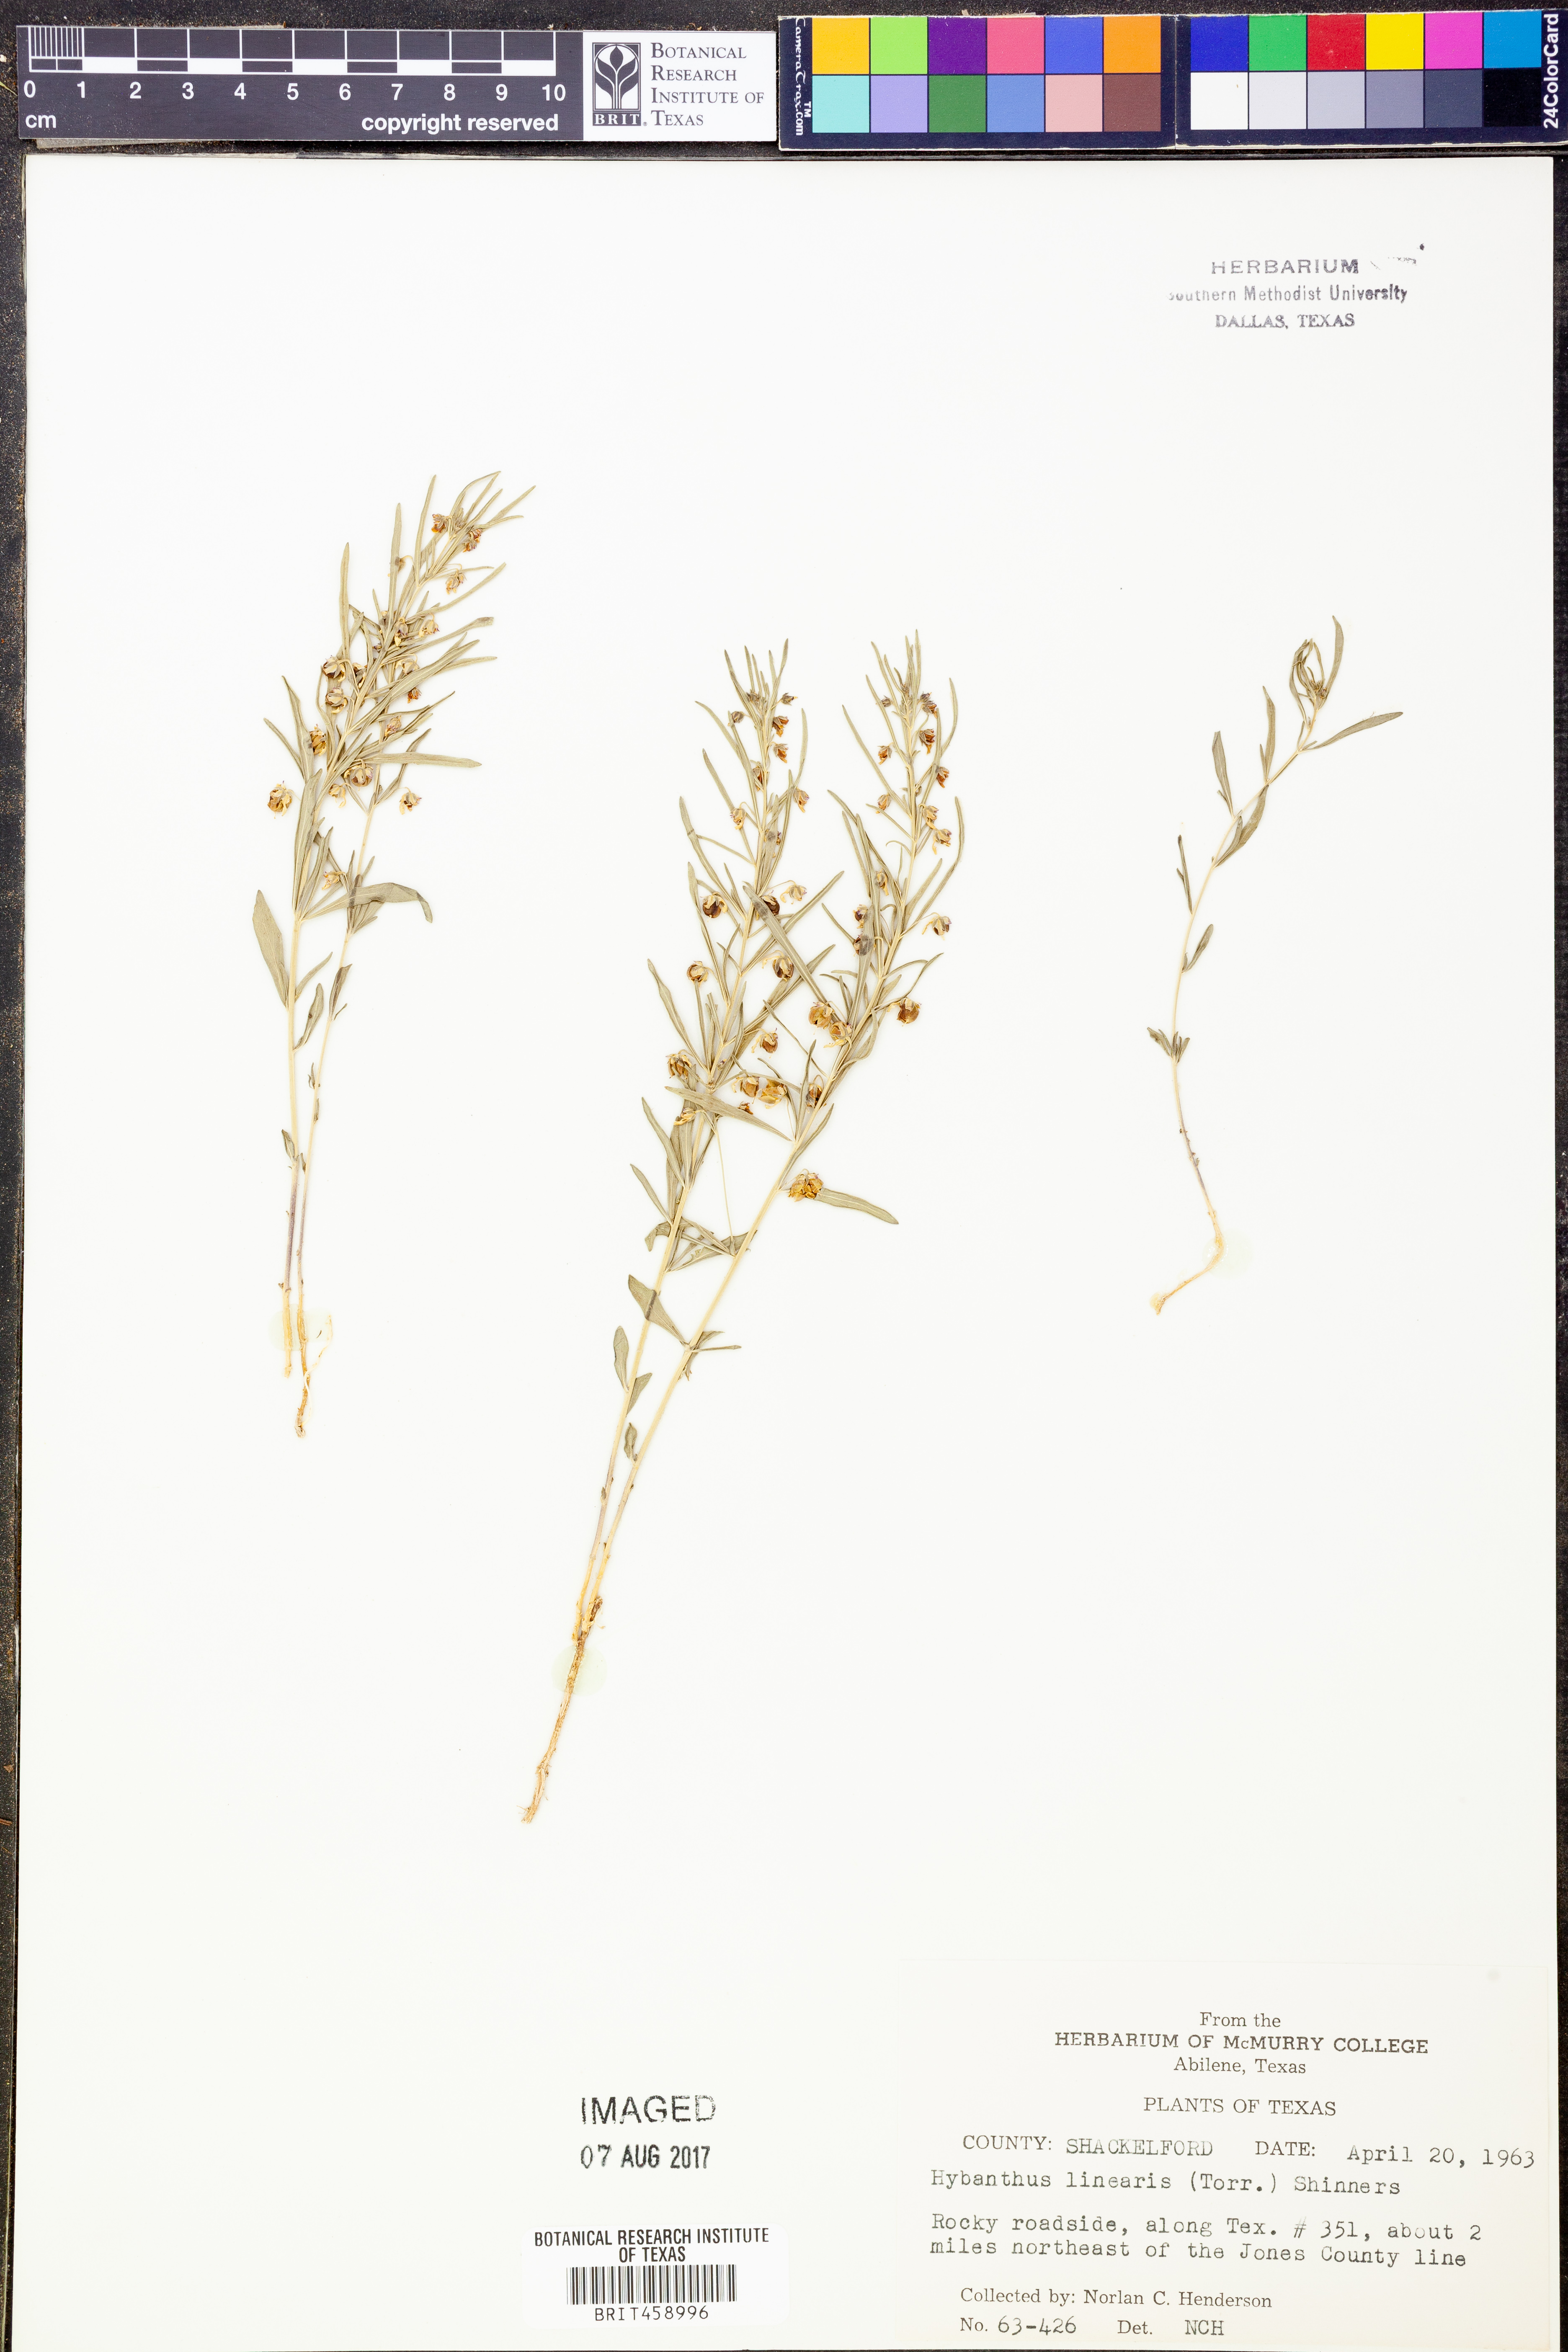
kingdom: Plantae
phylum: Tracheophyta
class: Magnoliopsida
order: Malpighiales
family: Violaceae
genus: Pombalia
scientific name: Pombalia verticillata
